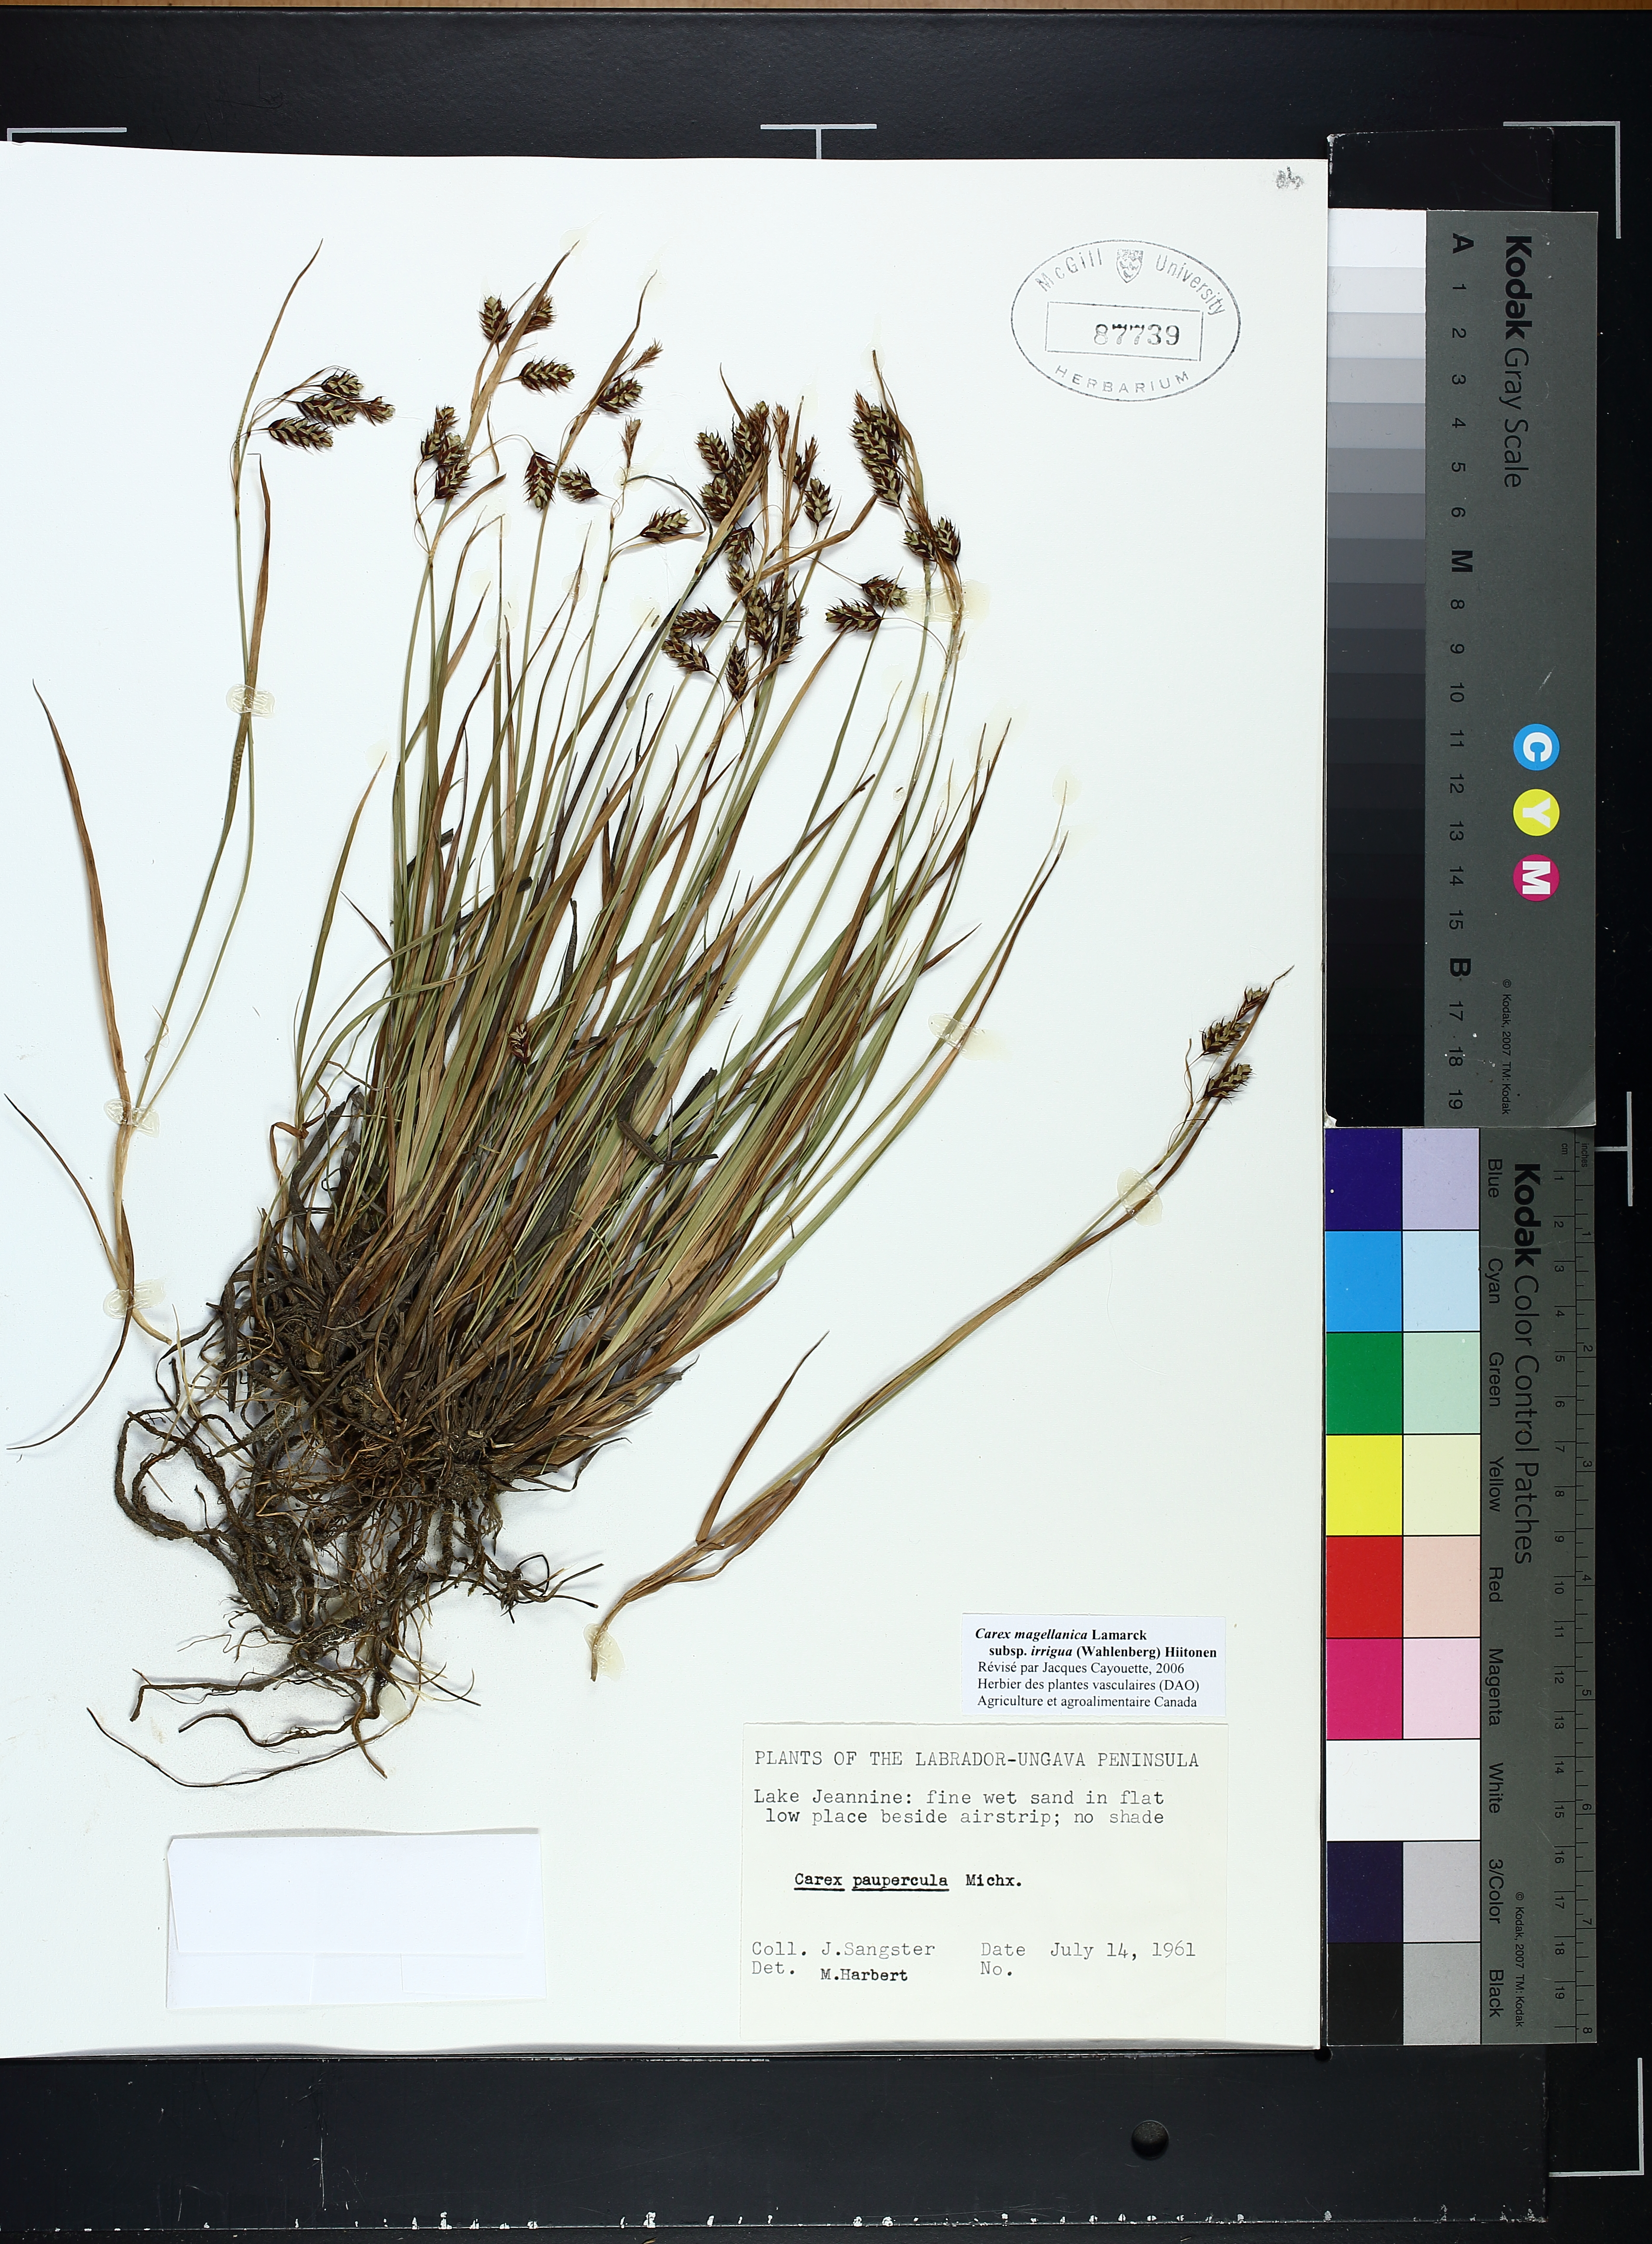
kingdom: Plantae
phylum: Tracheophyta
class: Liliopsida
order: Poales
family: Cyperaceae
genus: Carex
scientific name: Carex magellanica
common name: Bog sedge
